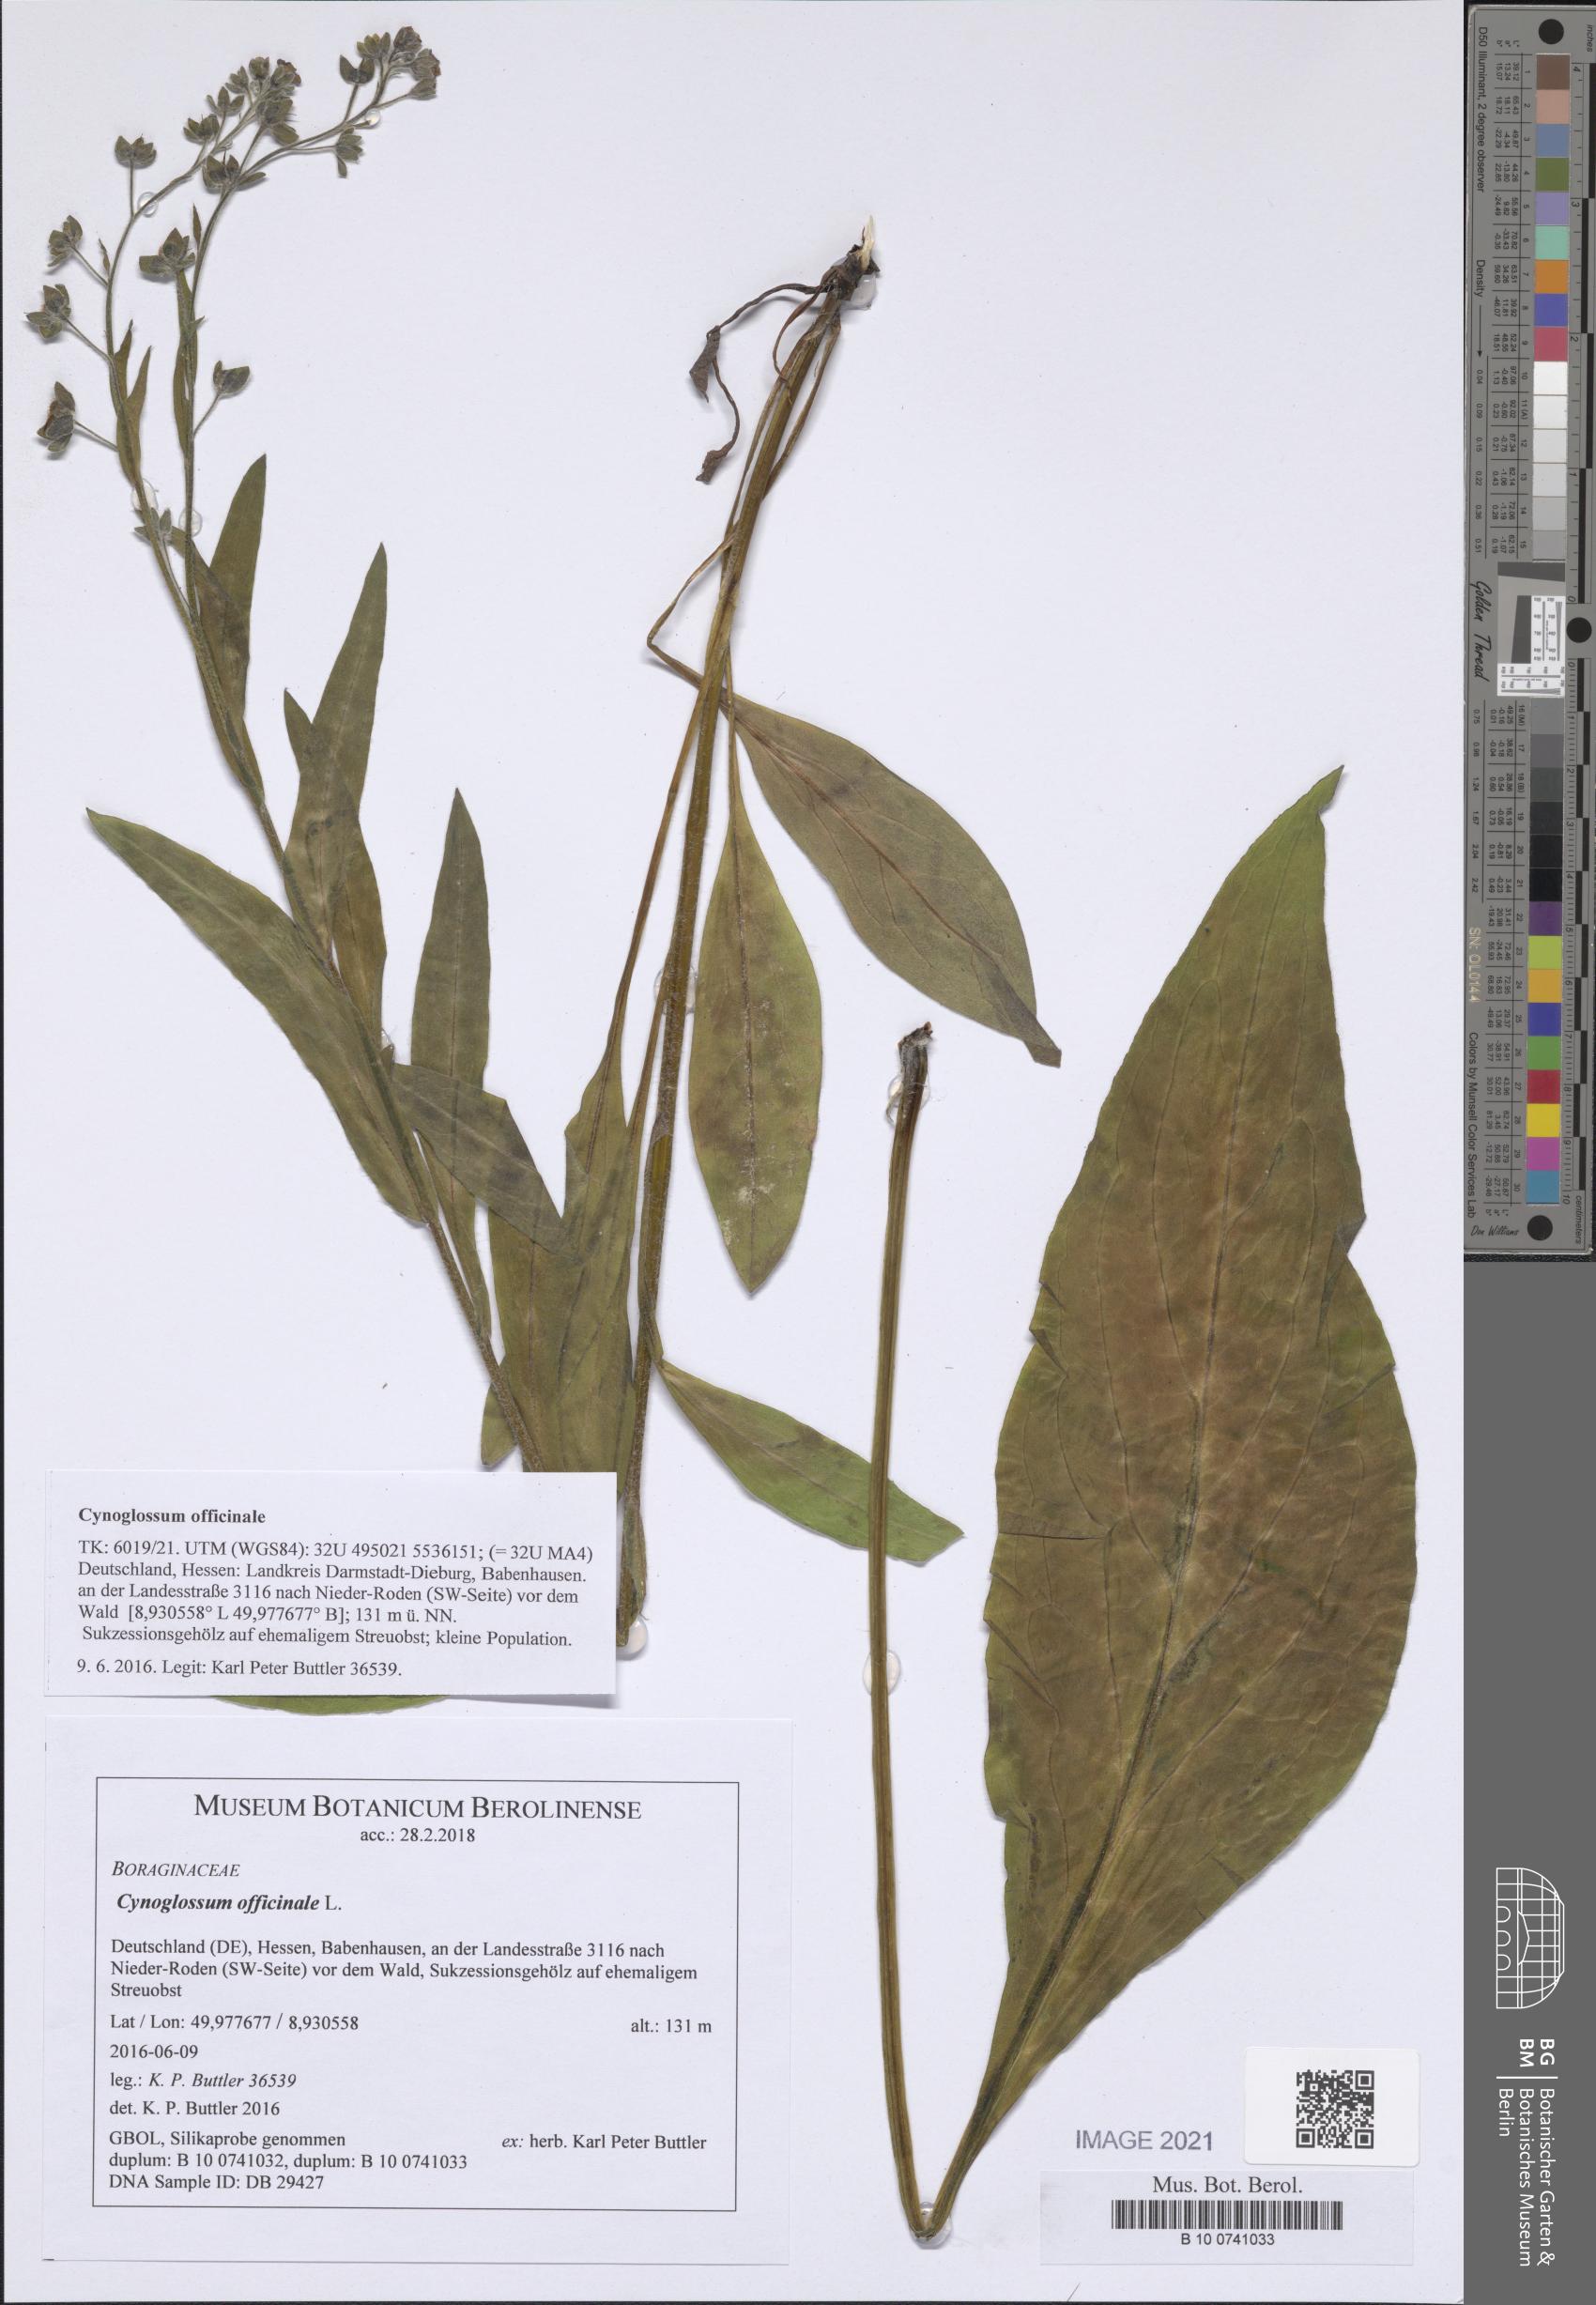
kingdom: Plantae
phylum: Tracheophyta
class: Magnoliopsida
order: Boraginales
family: Boraginaceae
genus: Cynoglossum
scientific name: Cynoglossum officinale
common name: Hound's-tongue
